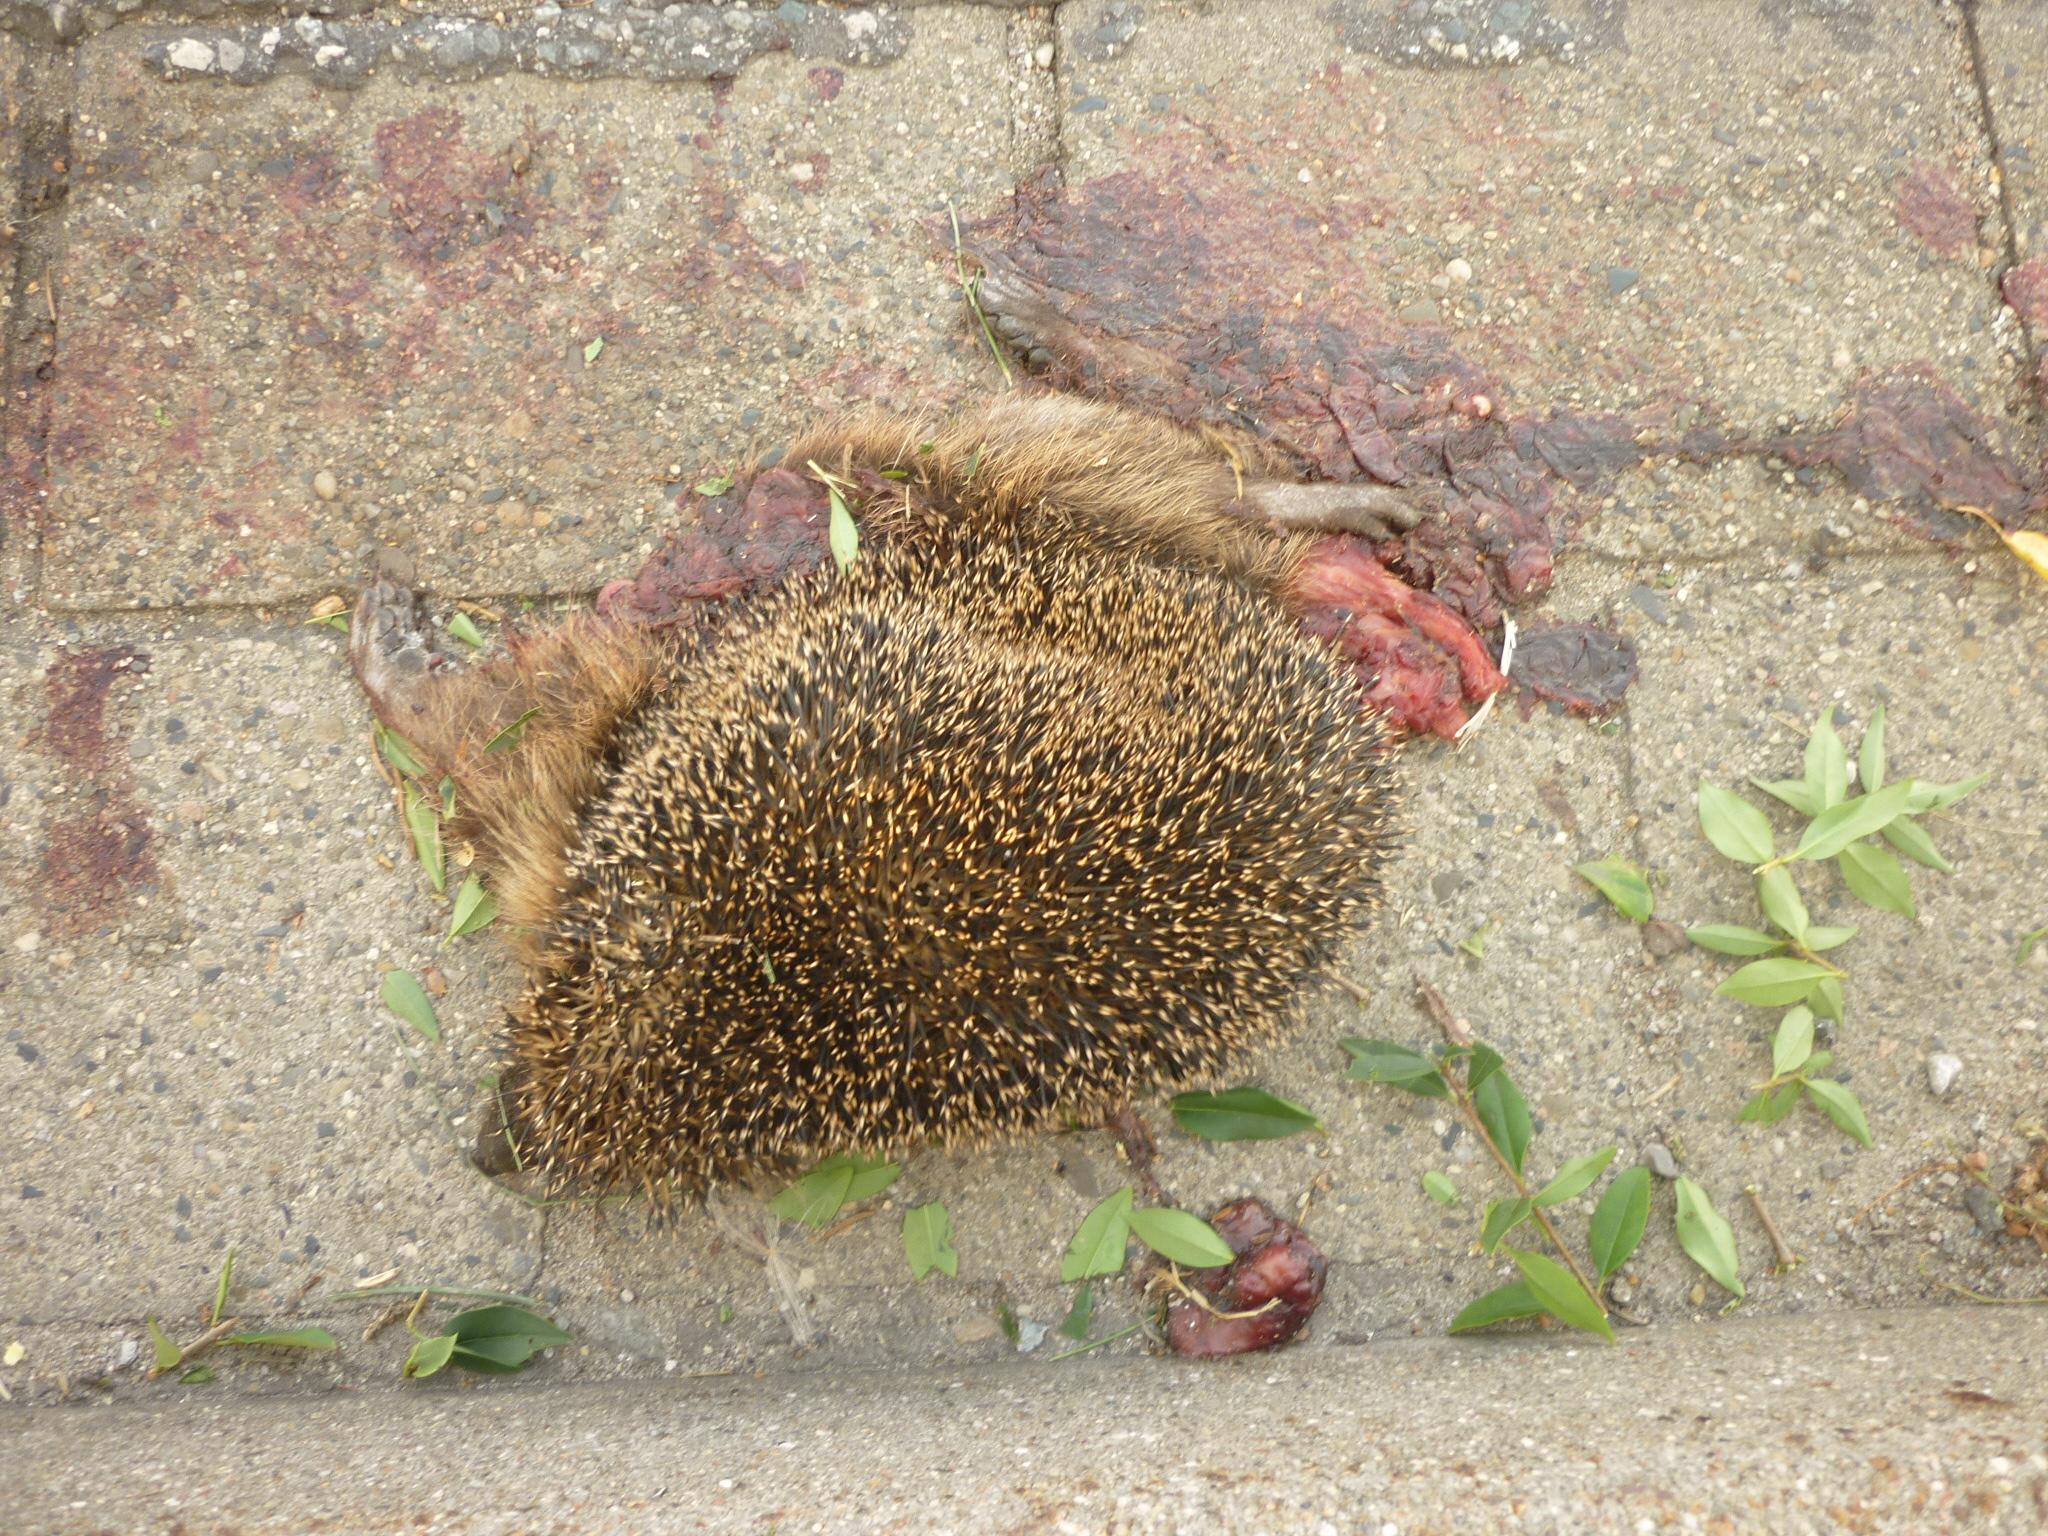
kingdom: Animalia
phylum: Chordata
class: Mammalia
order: Erinaceomorpha
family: Erinaceidae
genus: Erinaceus
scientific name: Erinaceus
